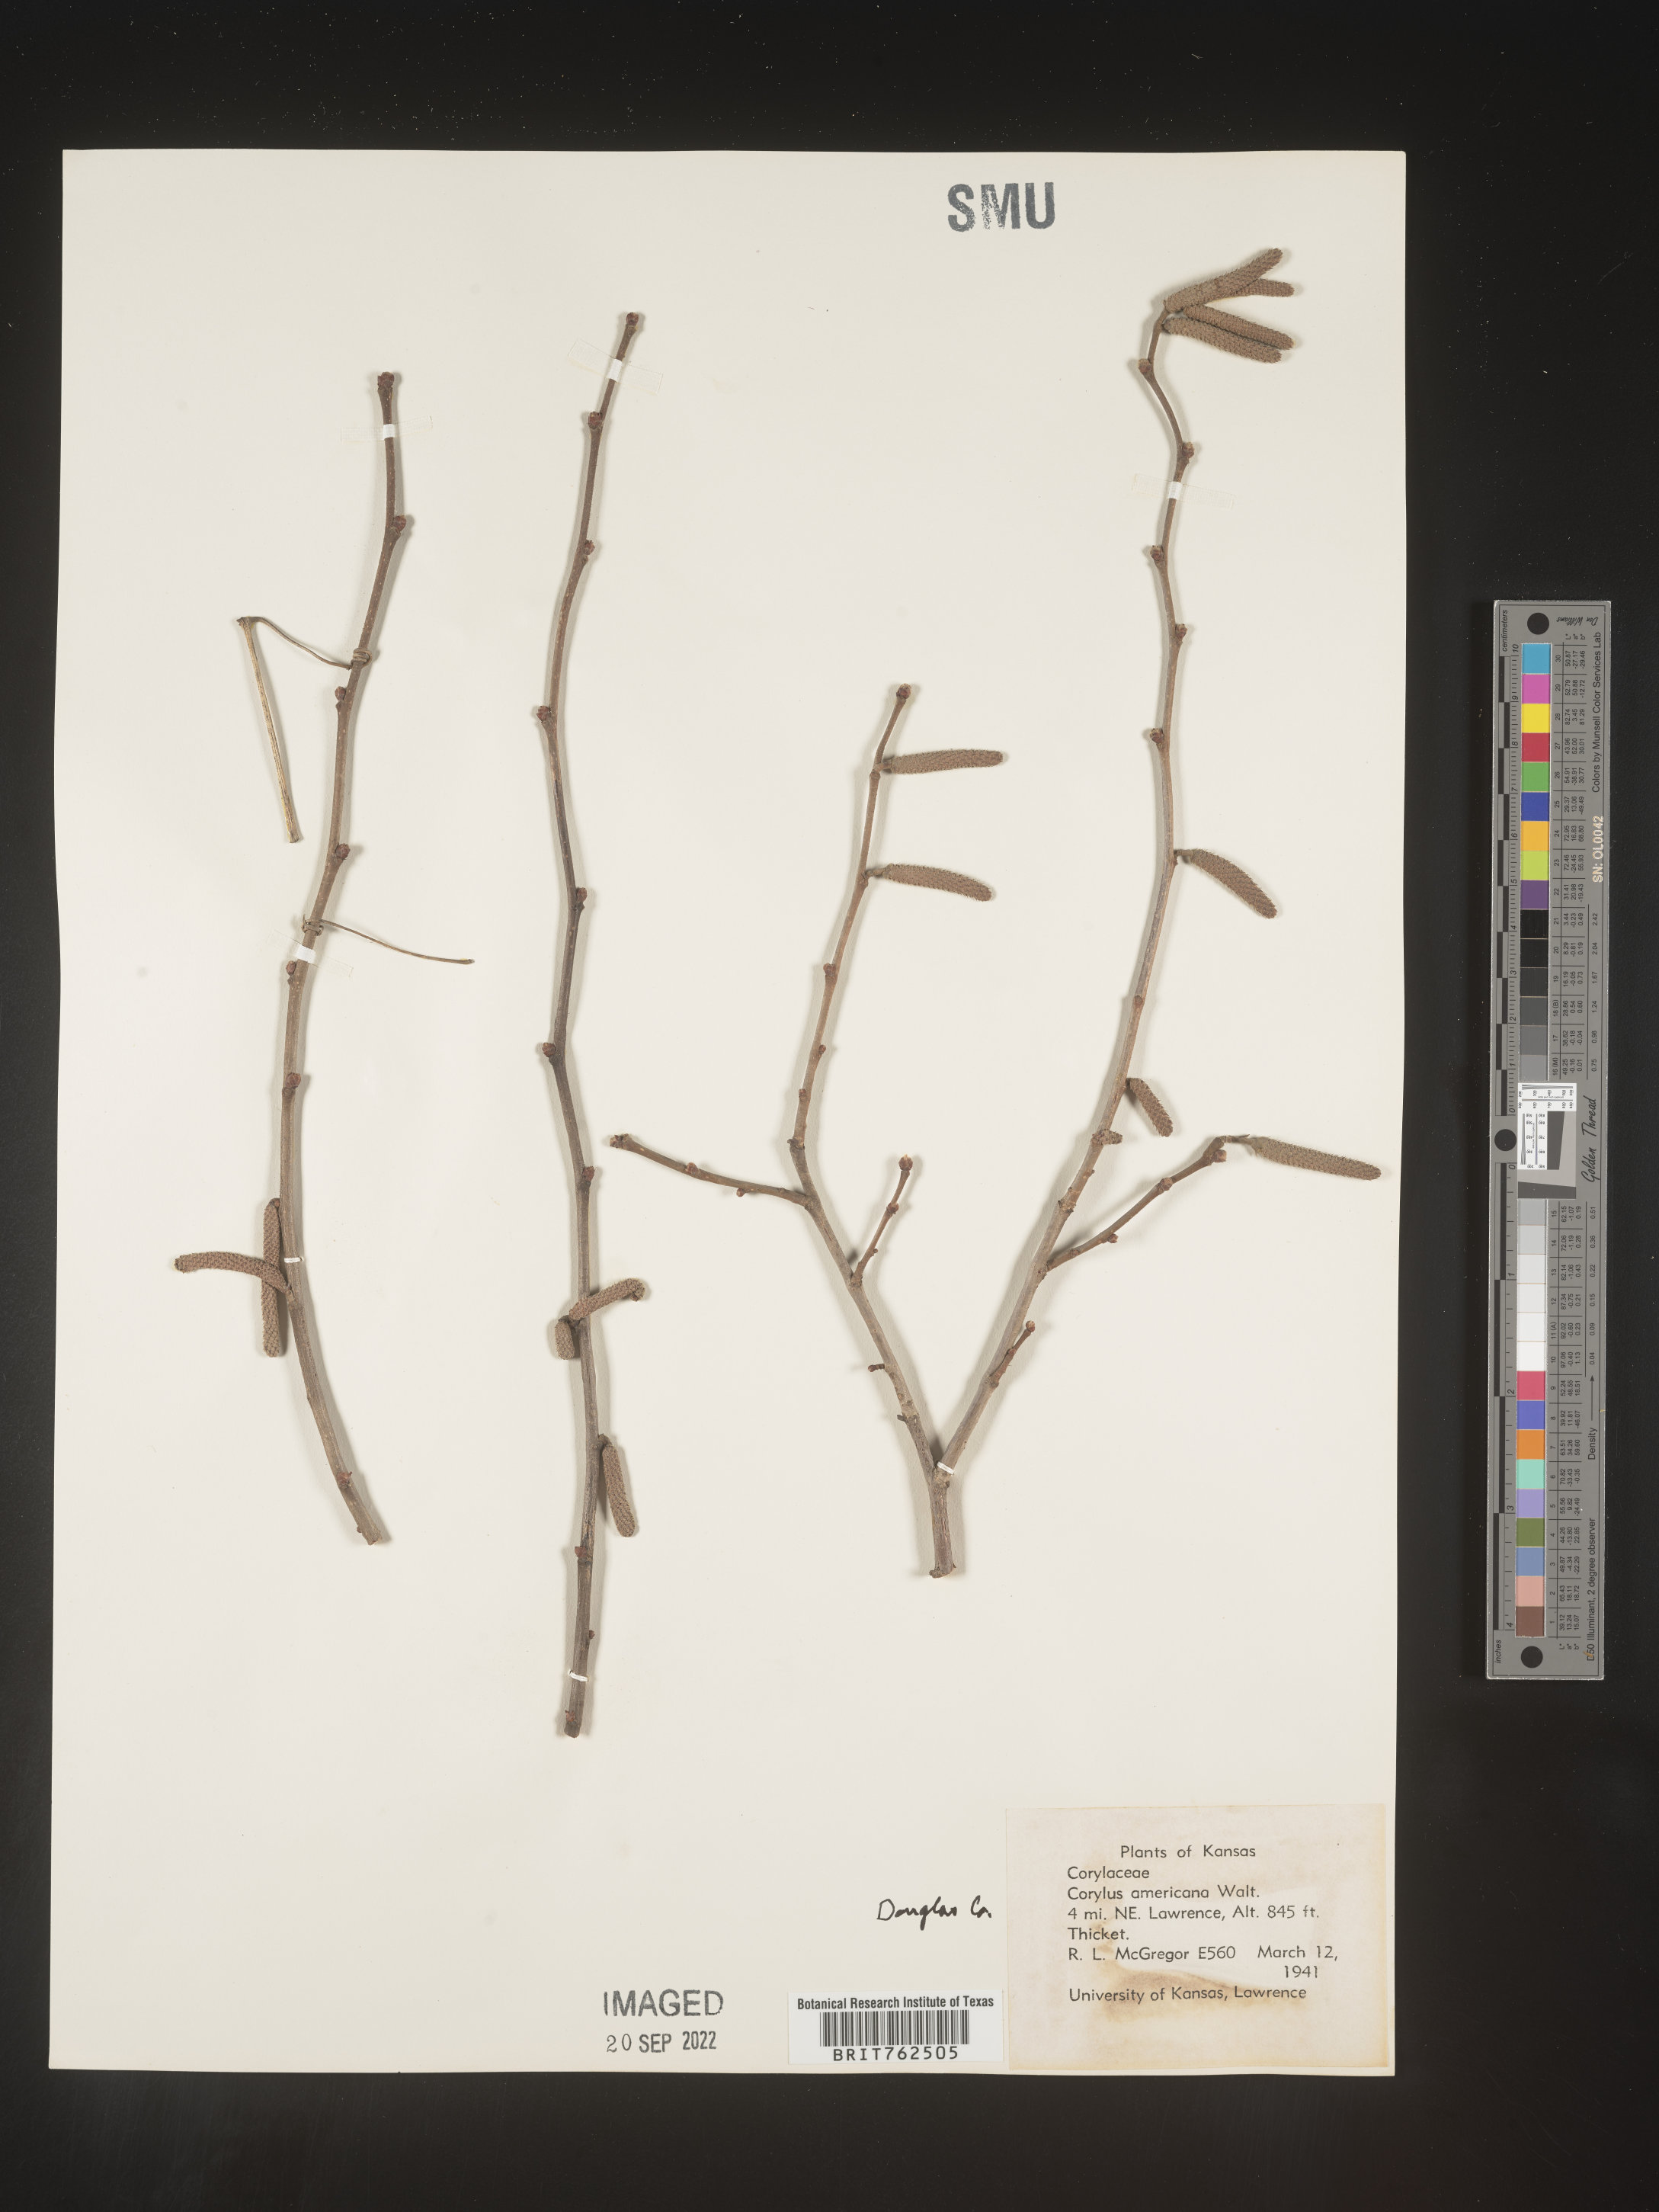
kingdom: Plantae
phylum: Tracheophyta
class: Magnoliopsida
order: Fagales
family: Betulaceae
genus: Corylus
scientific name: Corylus americana
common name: American hazel
